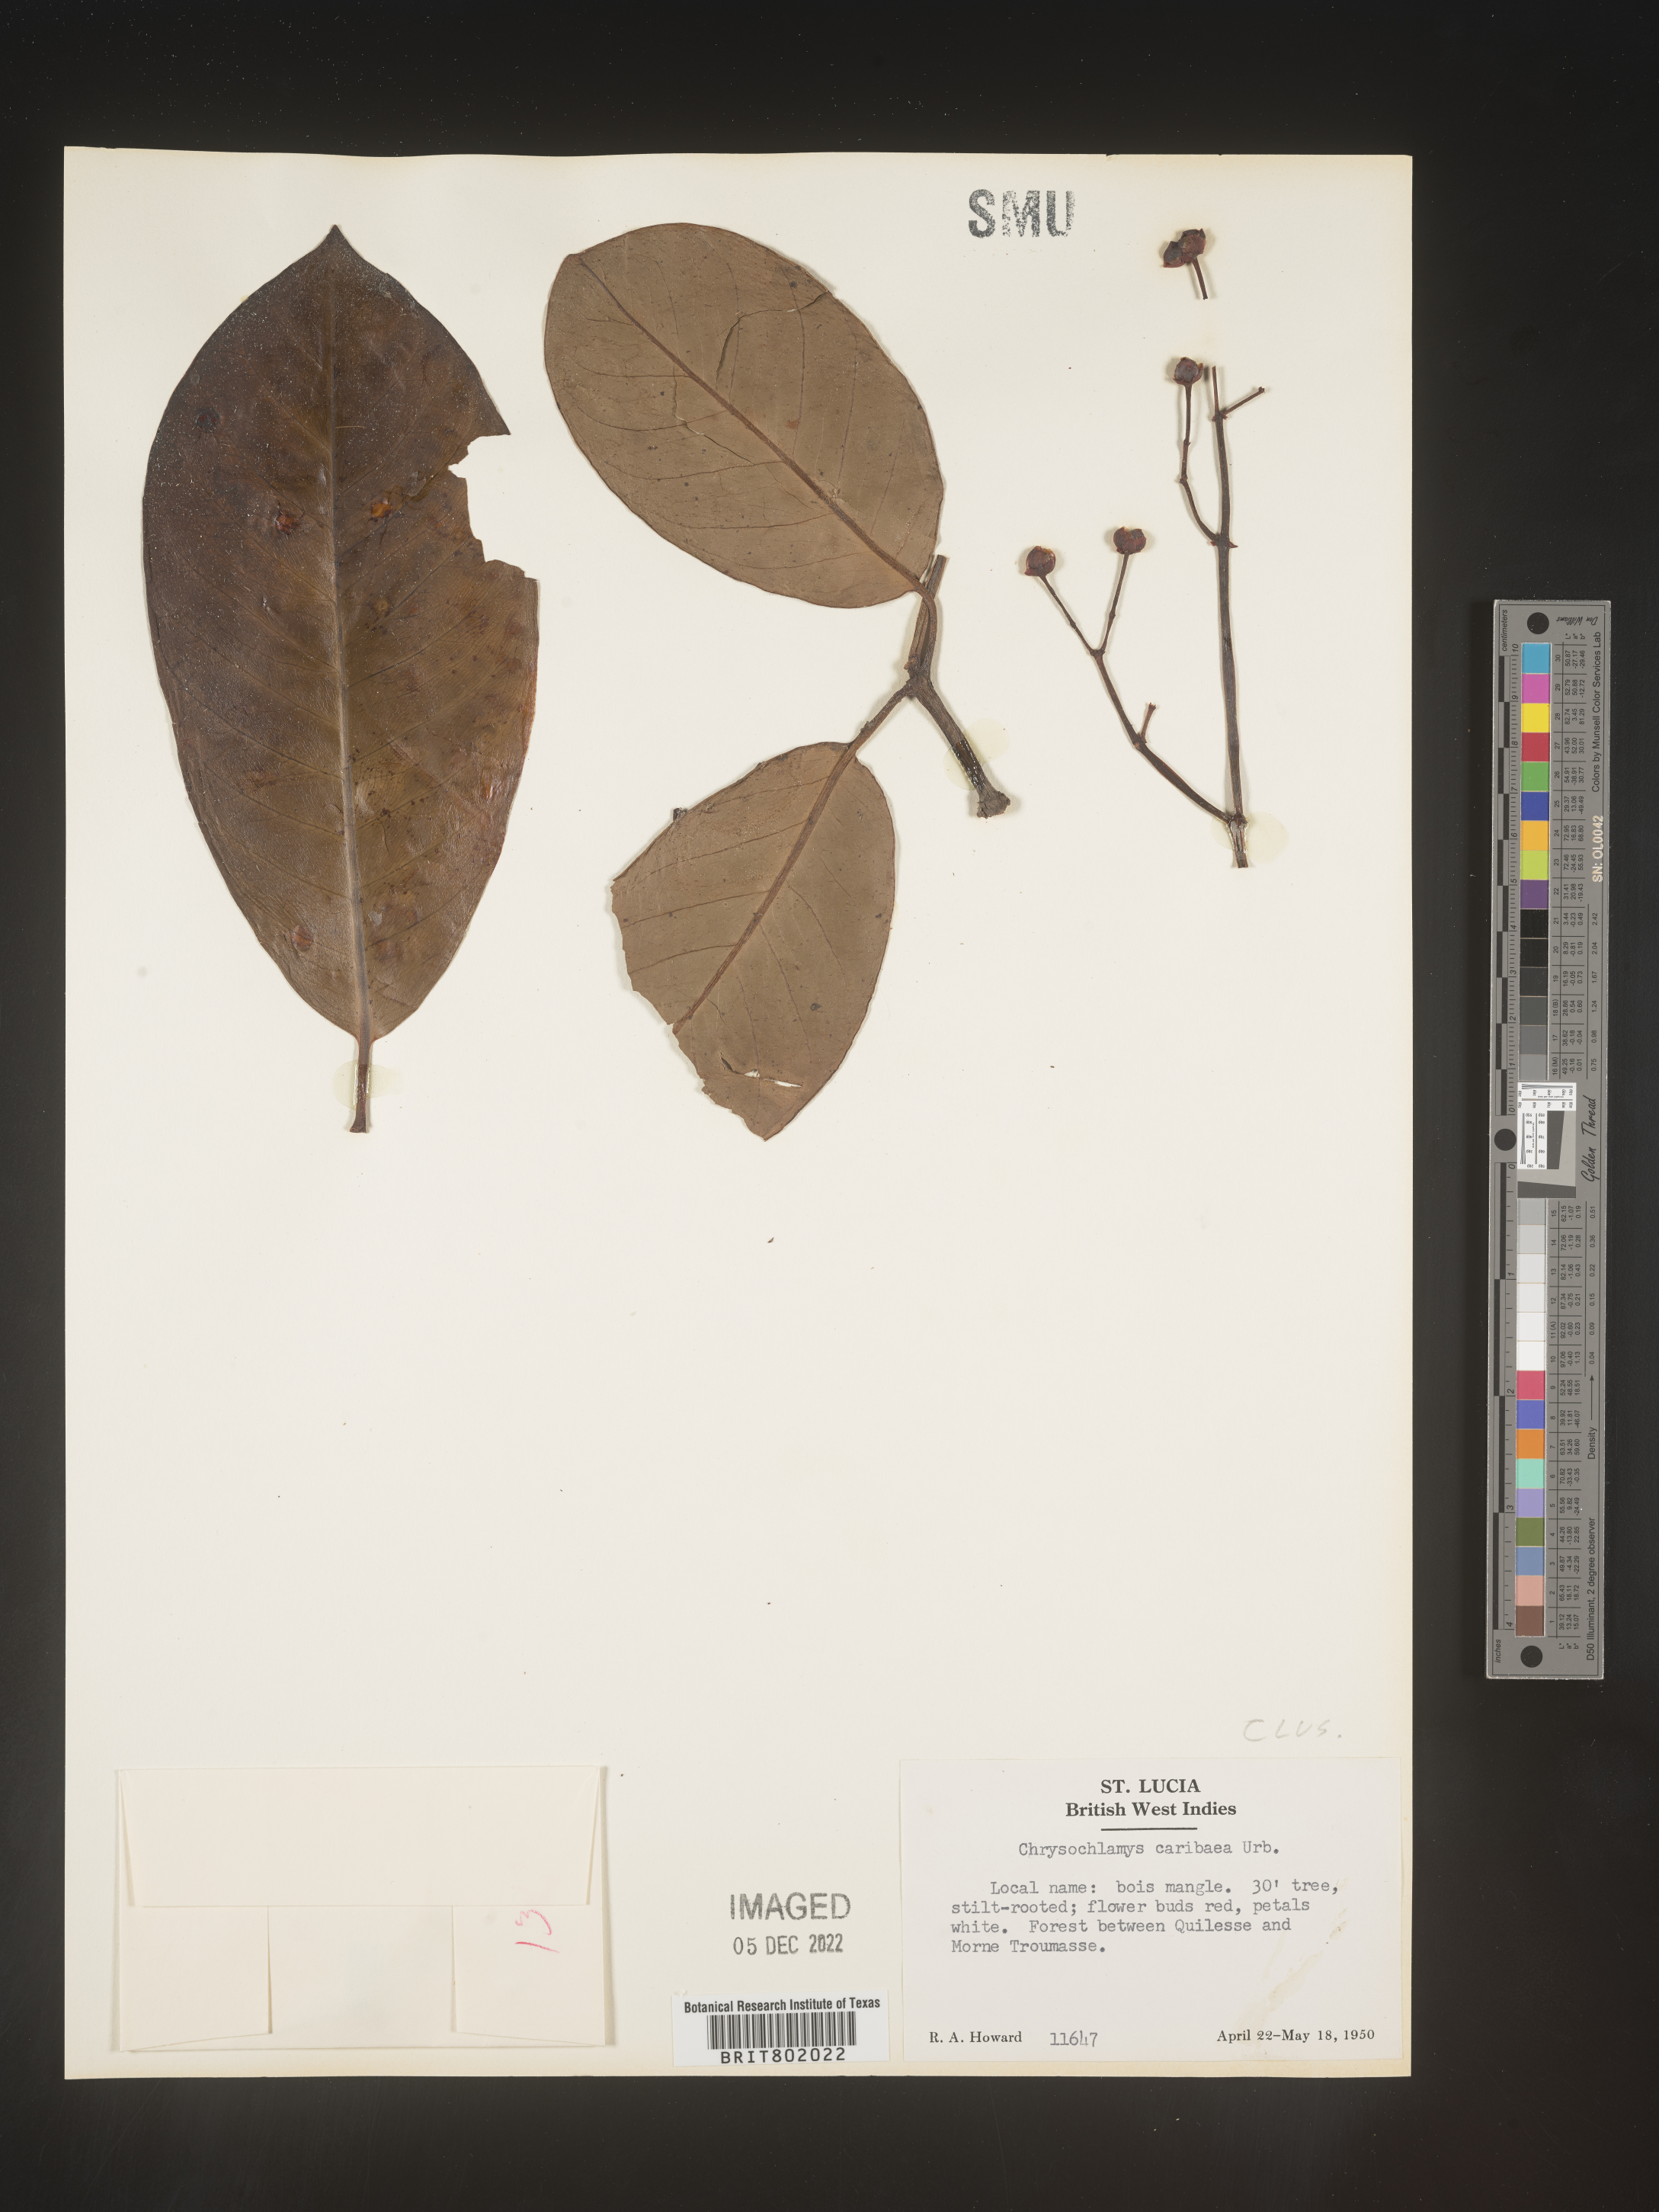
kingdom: Plantae
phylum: Tracheophyta
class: Magnoliopsida
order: Malpighiales
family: Clusiaceae
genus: Chrysochlamys
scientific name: Chrysochlamys
